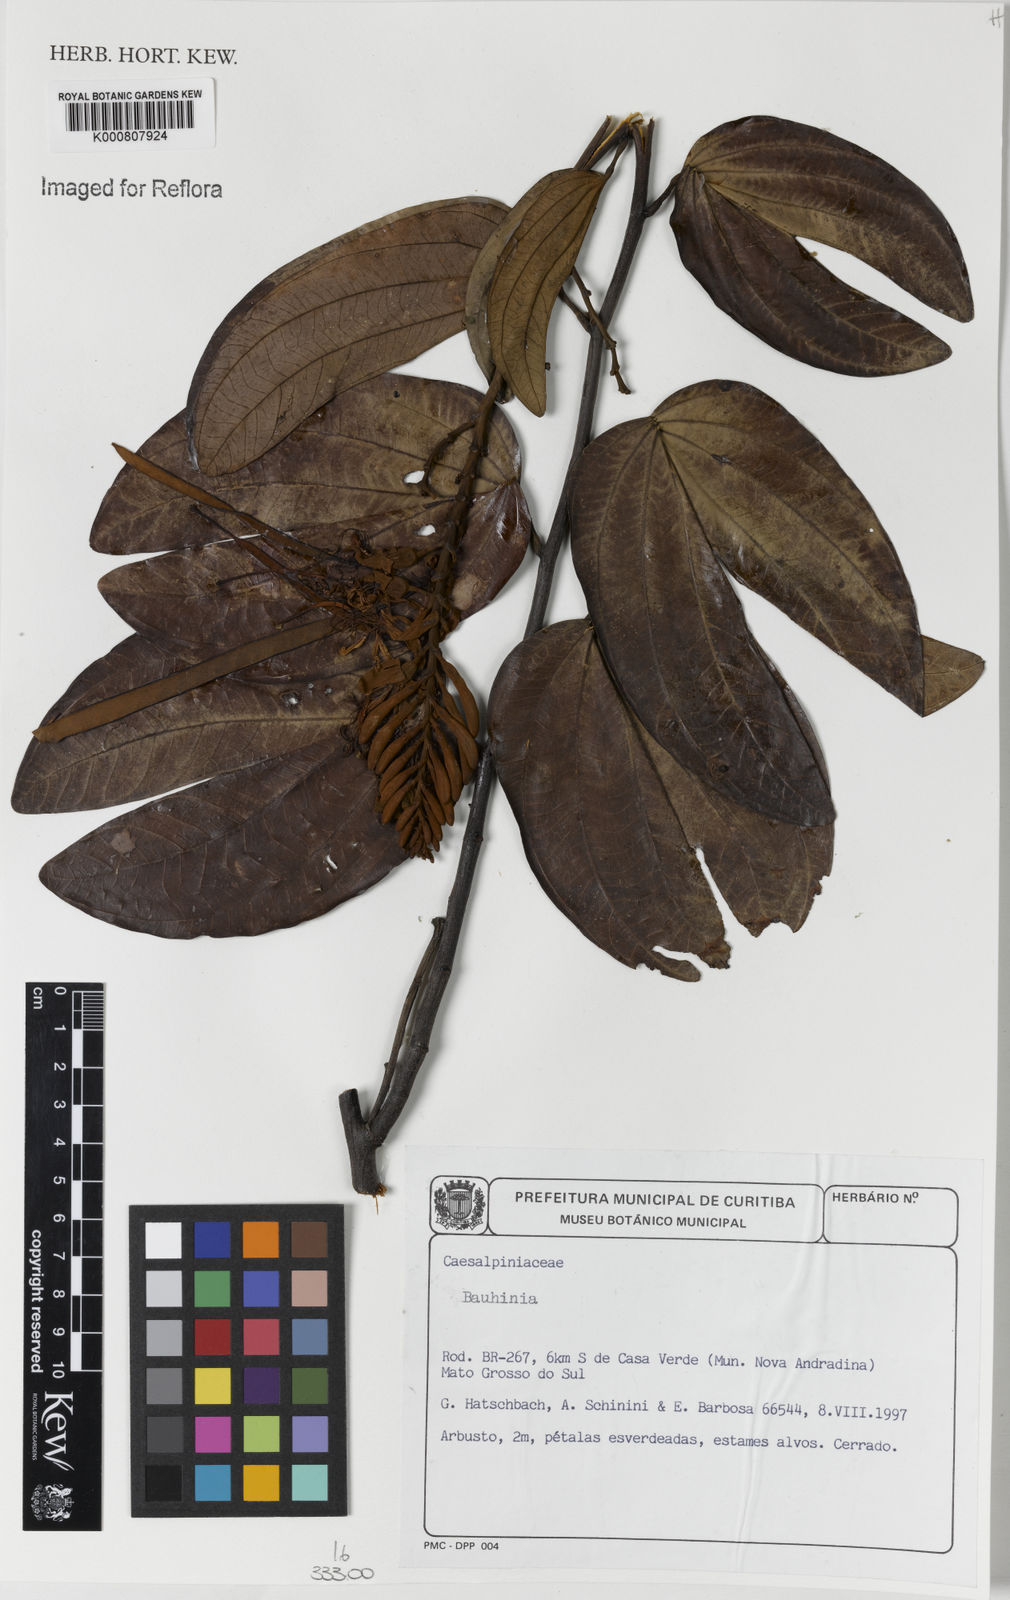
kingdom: Plantae
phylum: Tracheophyta
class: Magnoliopsida
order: Fabales
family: Fabaceae
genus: Bauhinia
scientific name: Bauhinia
